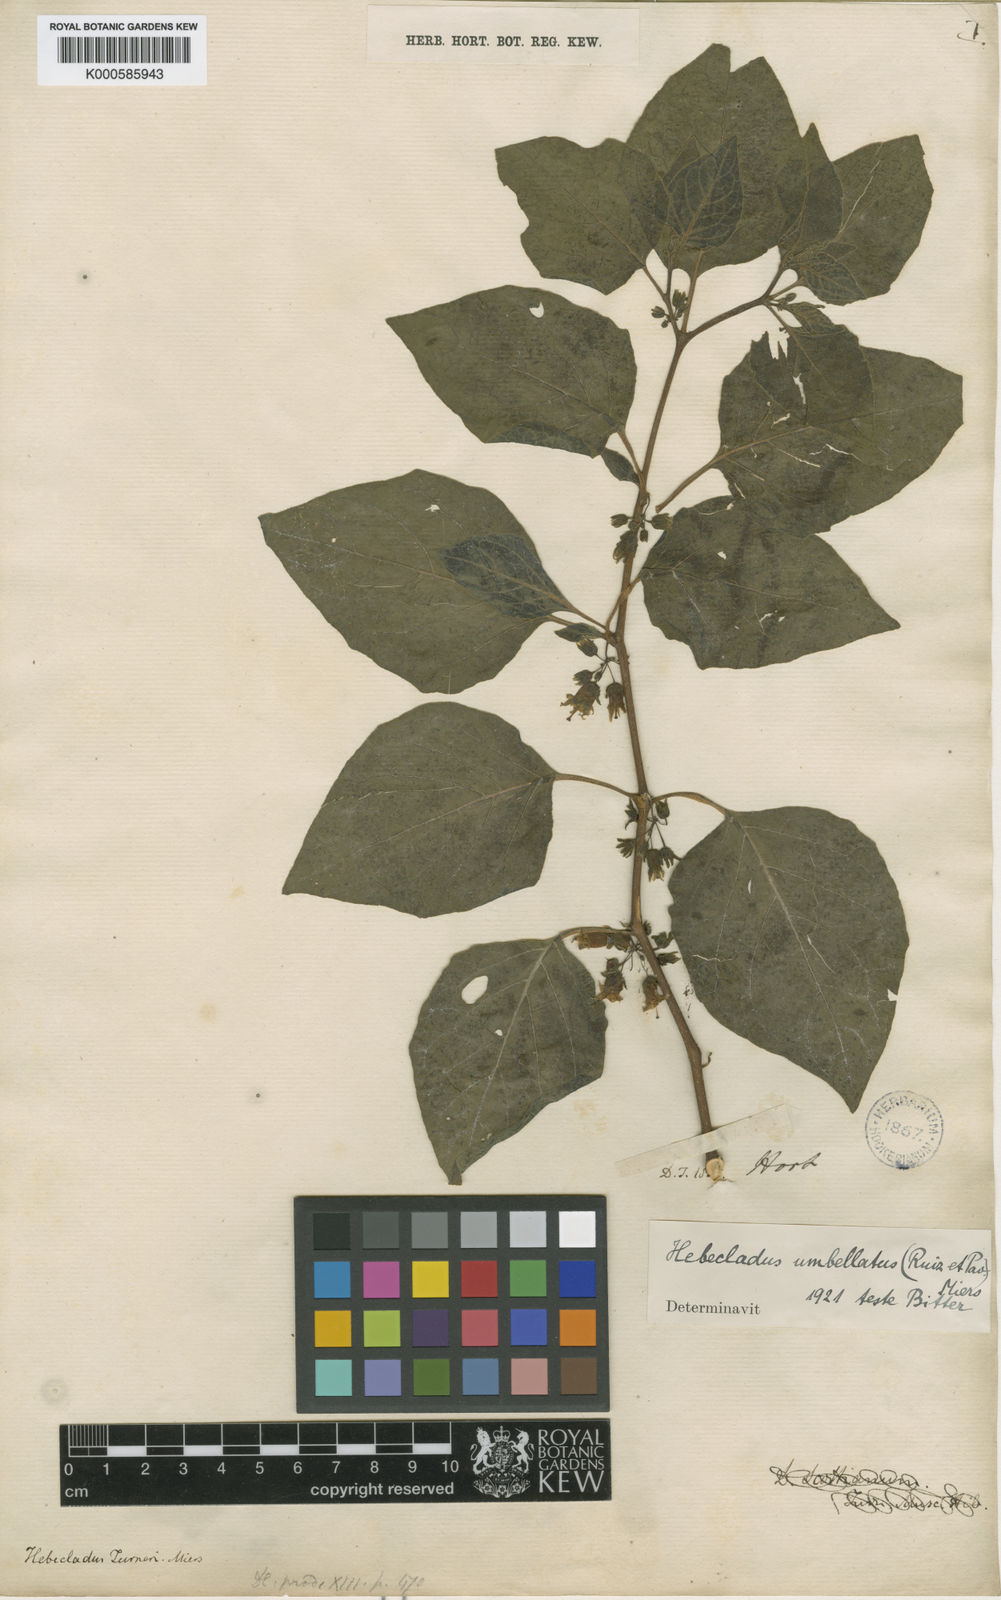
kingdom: Plantae
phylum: Tracheophyta
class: Magnoliopsida
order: Solanales
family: Solanaceae
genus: Jaltomata
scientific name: Jaltomata umbellata
